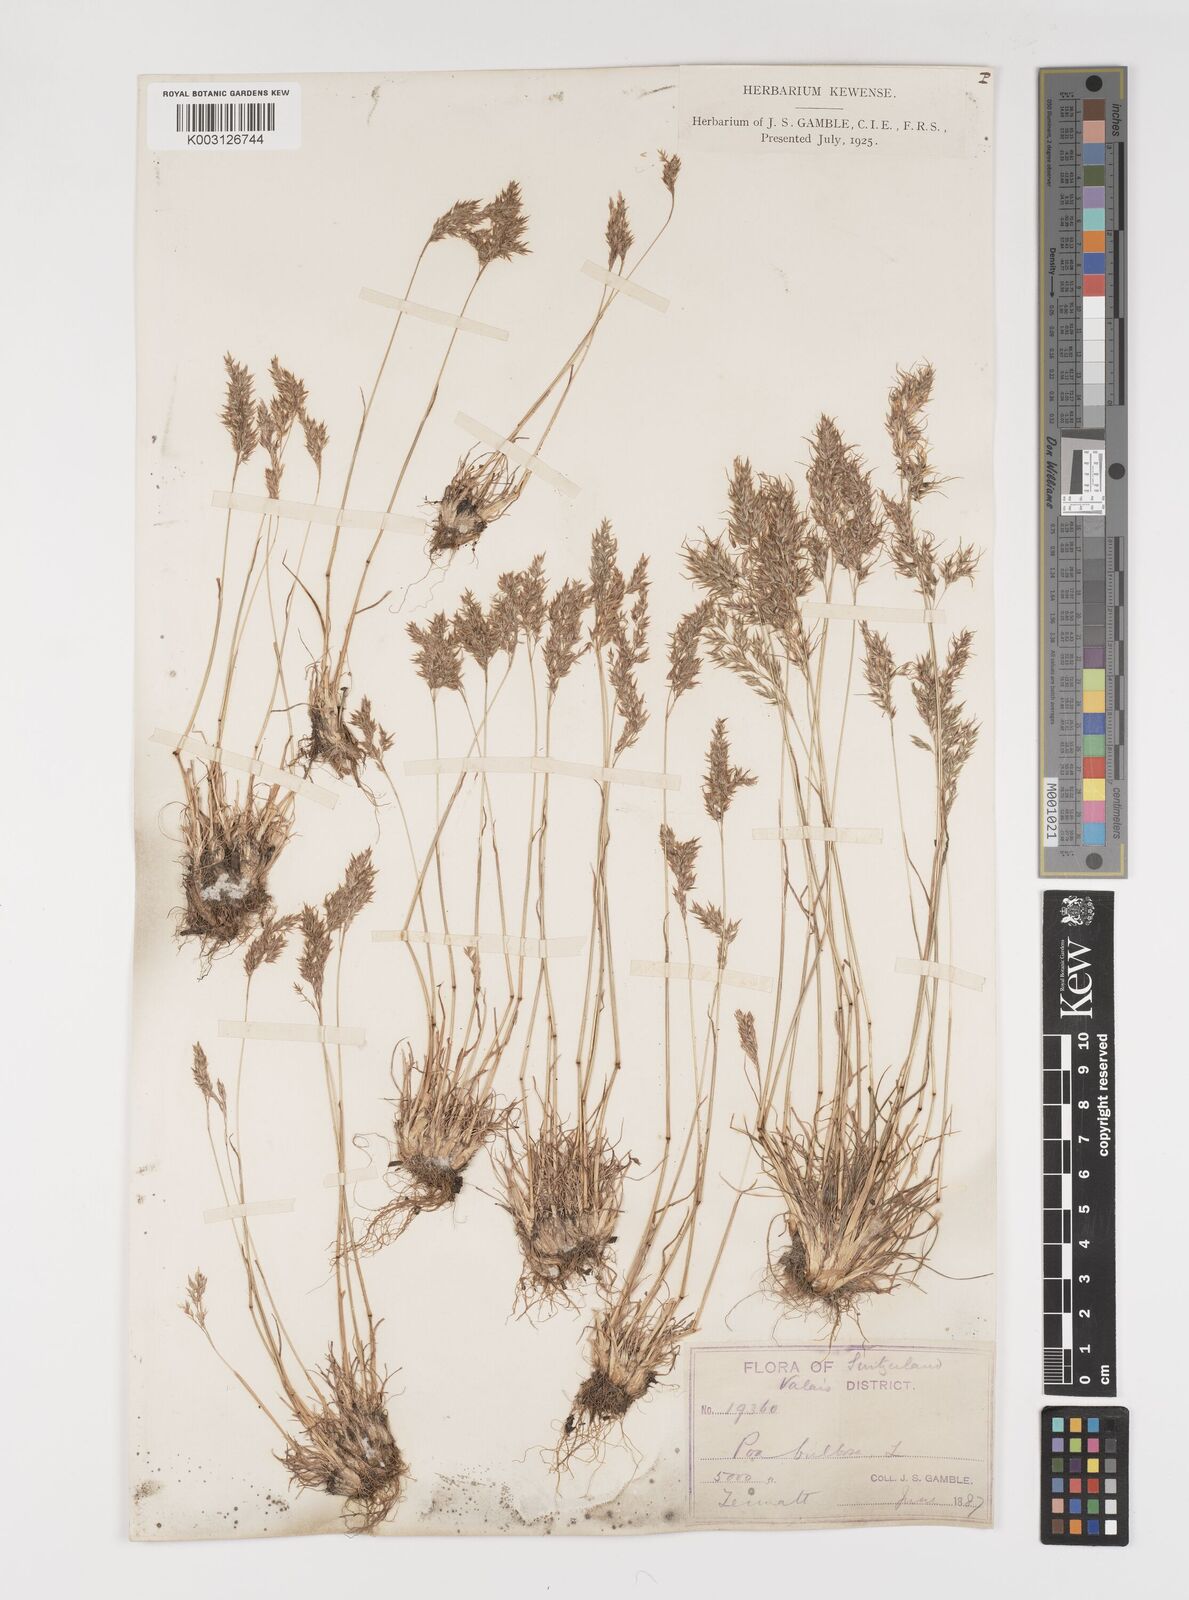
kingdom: Plantae
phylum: Tracheophyta
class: Liliopsida
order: Poales
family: Poaceae
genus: Poa
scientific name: Poa bulbosa
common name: Bulbous bluegrass
